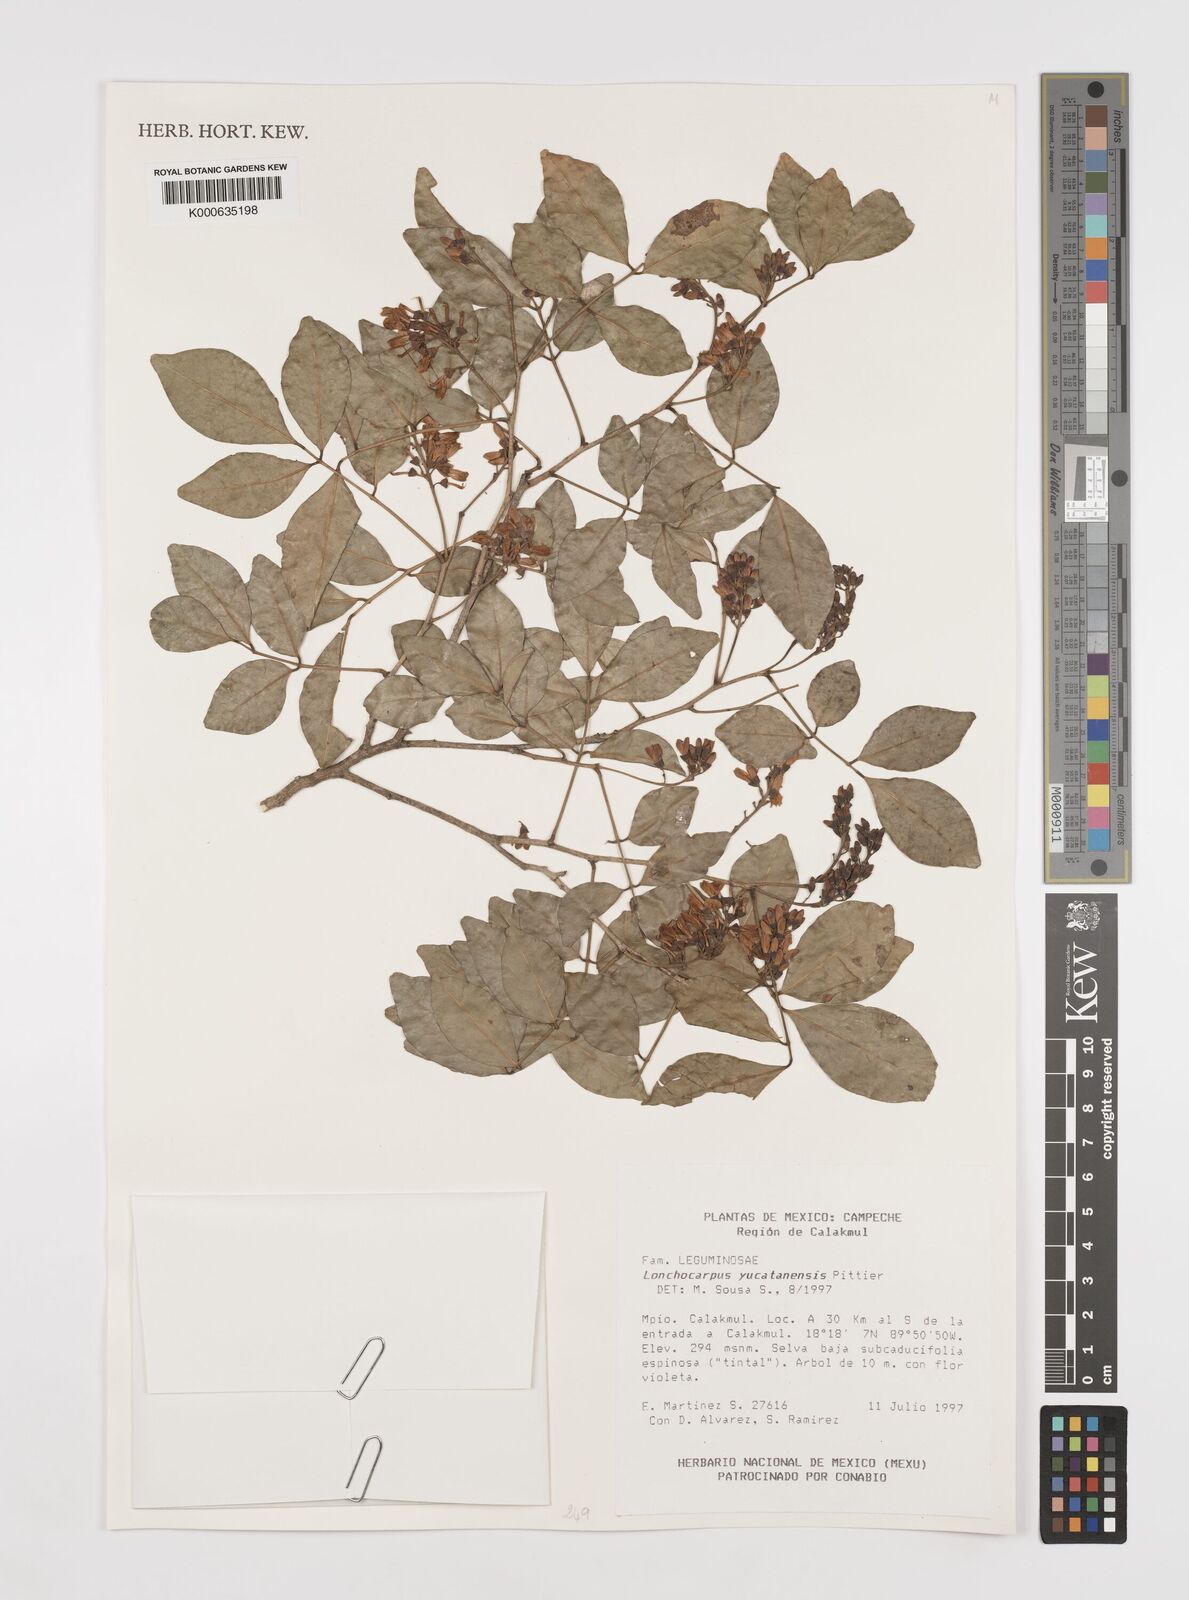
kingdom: Plantae
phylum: Tracheophyta
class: Magnoliopsida
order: Fabales
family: Fabaceae
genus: Lonchocarpus
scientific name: Lonchocarpus yucatanensis
